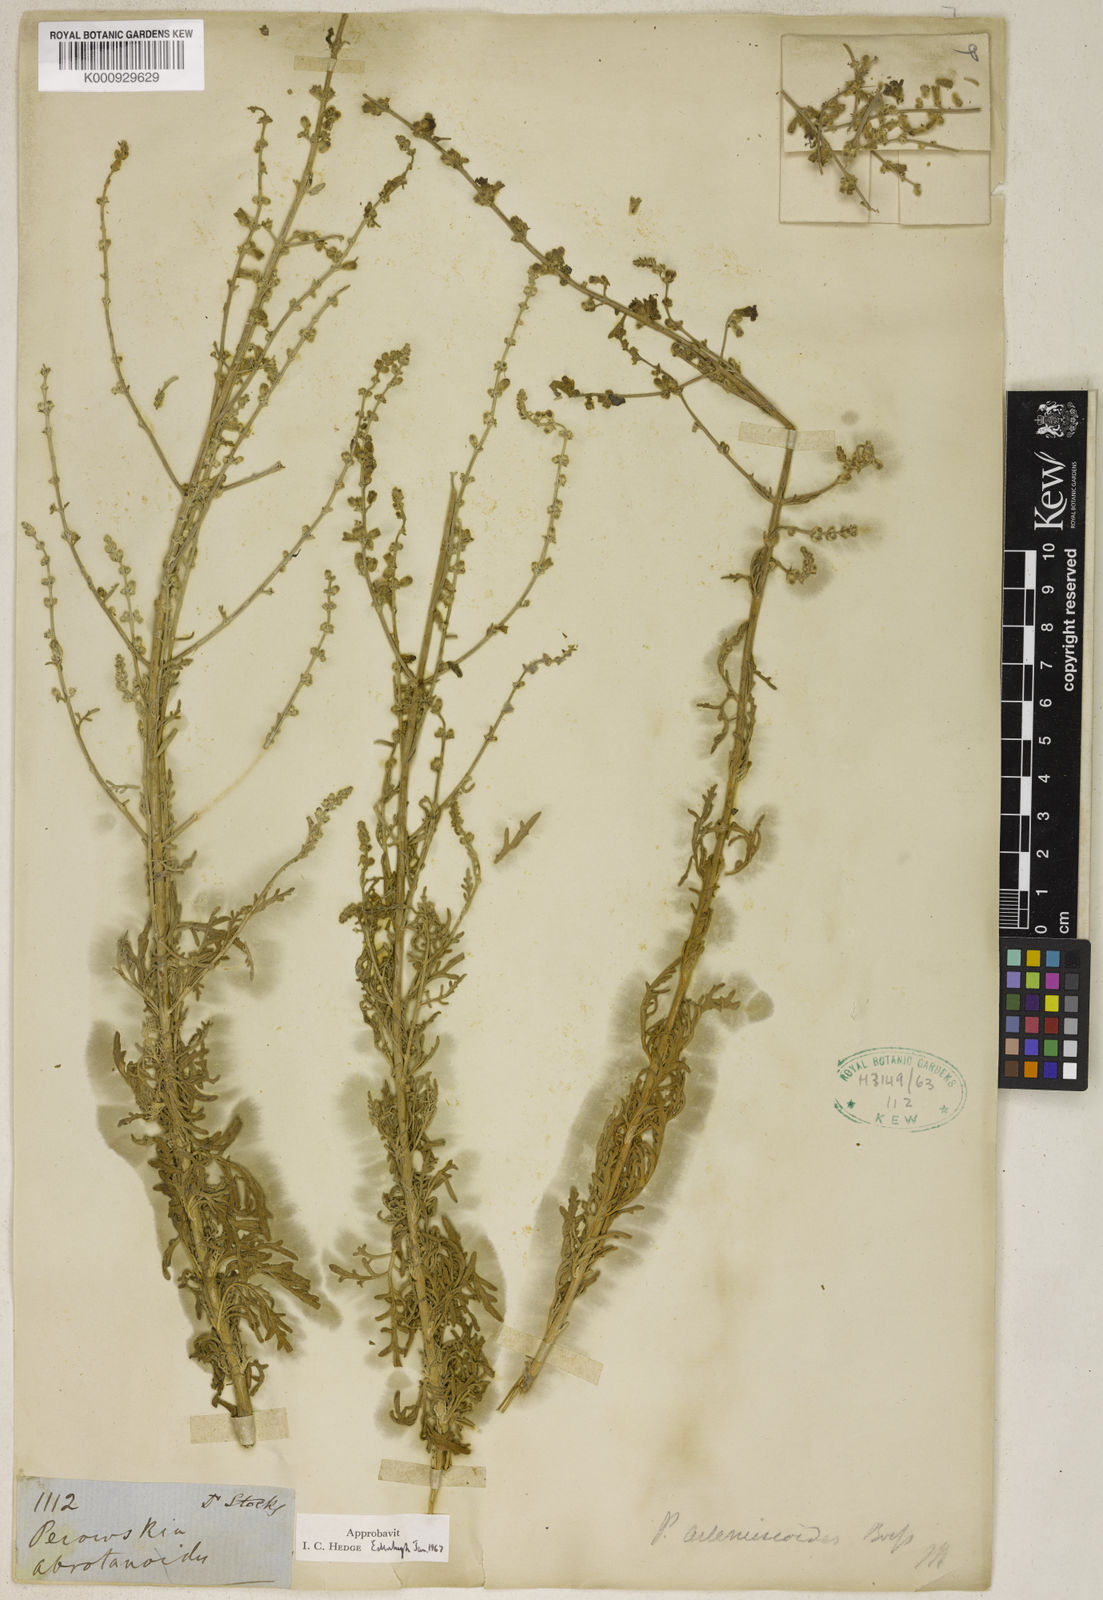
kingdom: Plantae
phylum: Tracheophyta
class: Magnoliopsida
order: Lamiales
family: Lamiaceae
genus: Salvia
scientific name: Salvia abrotanoides
